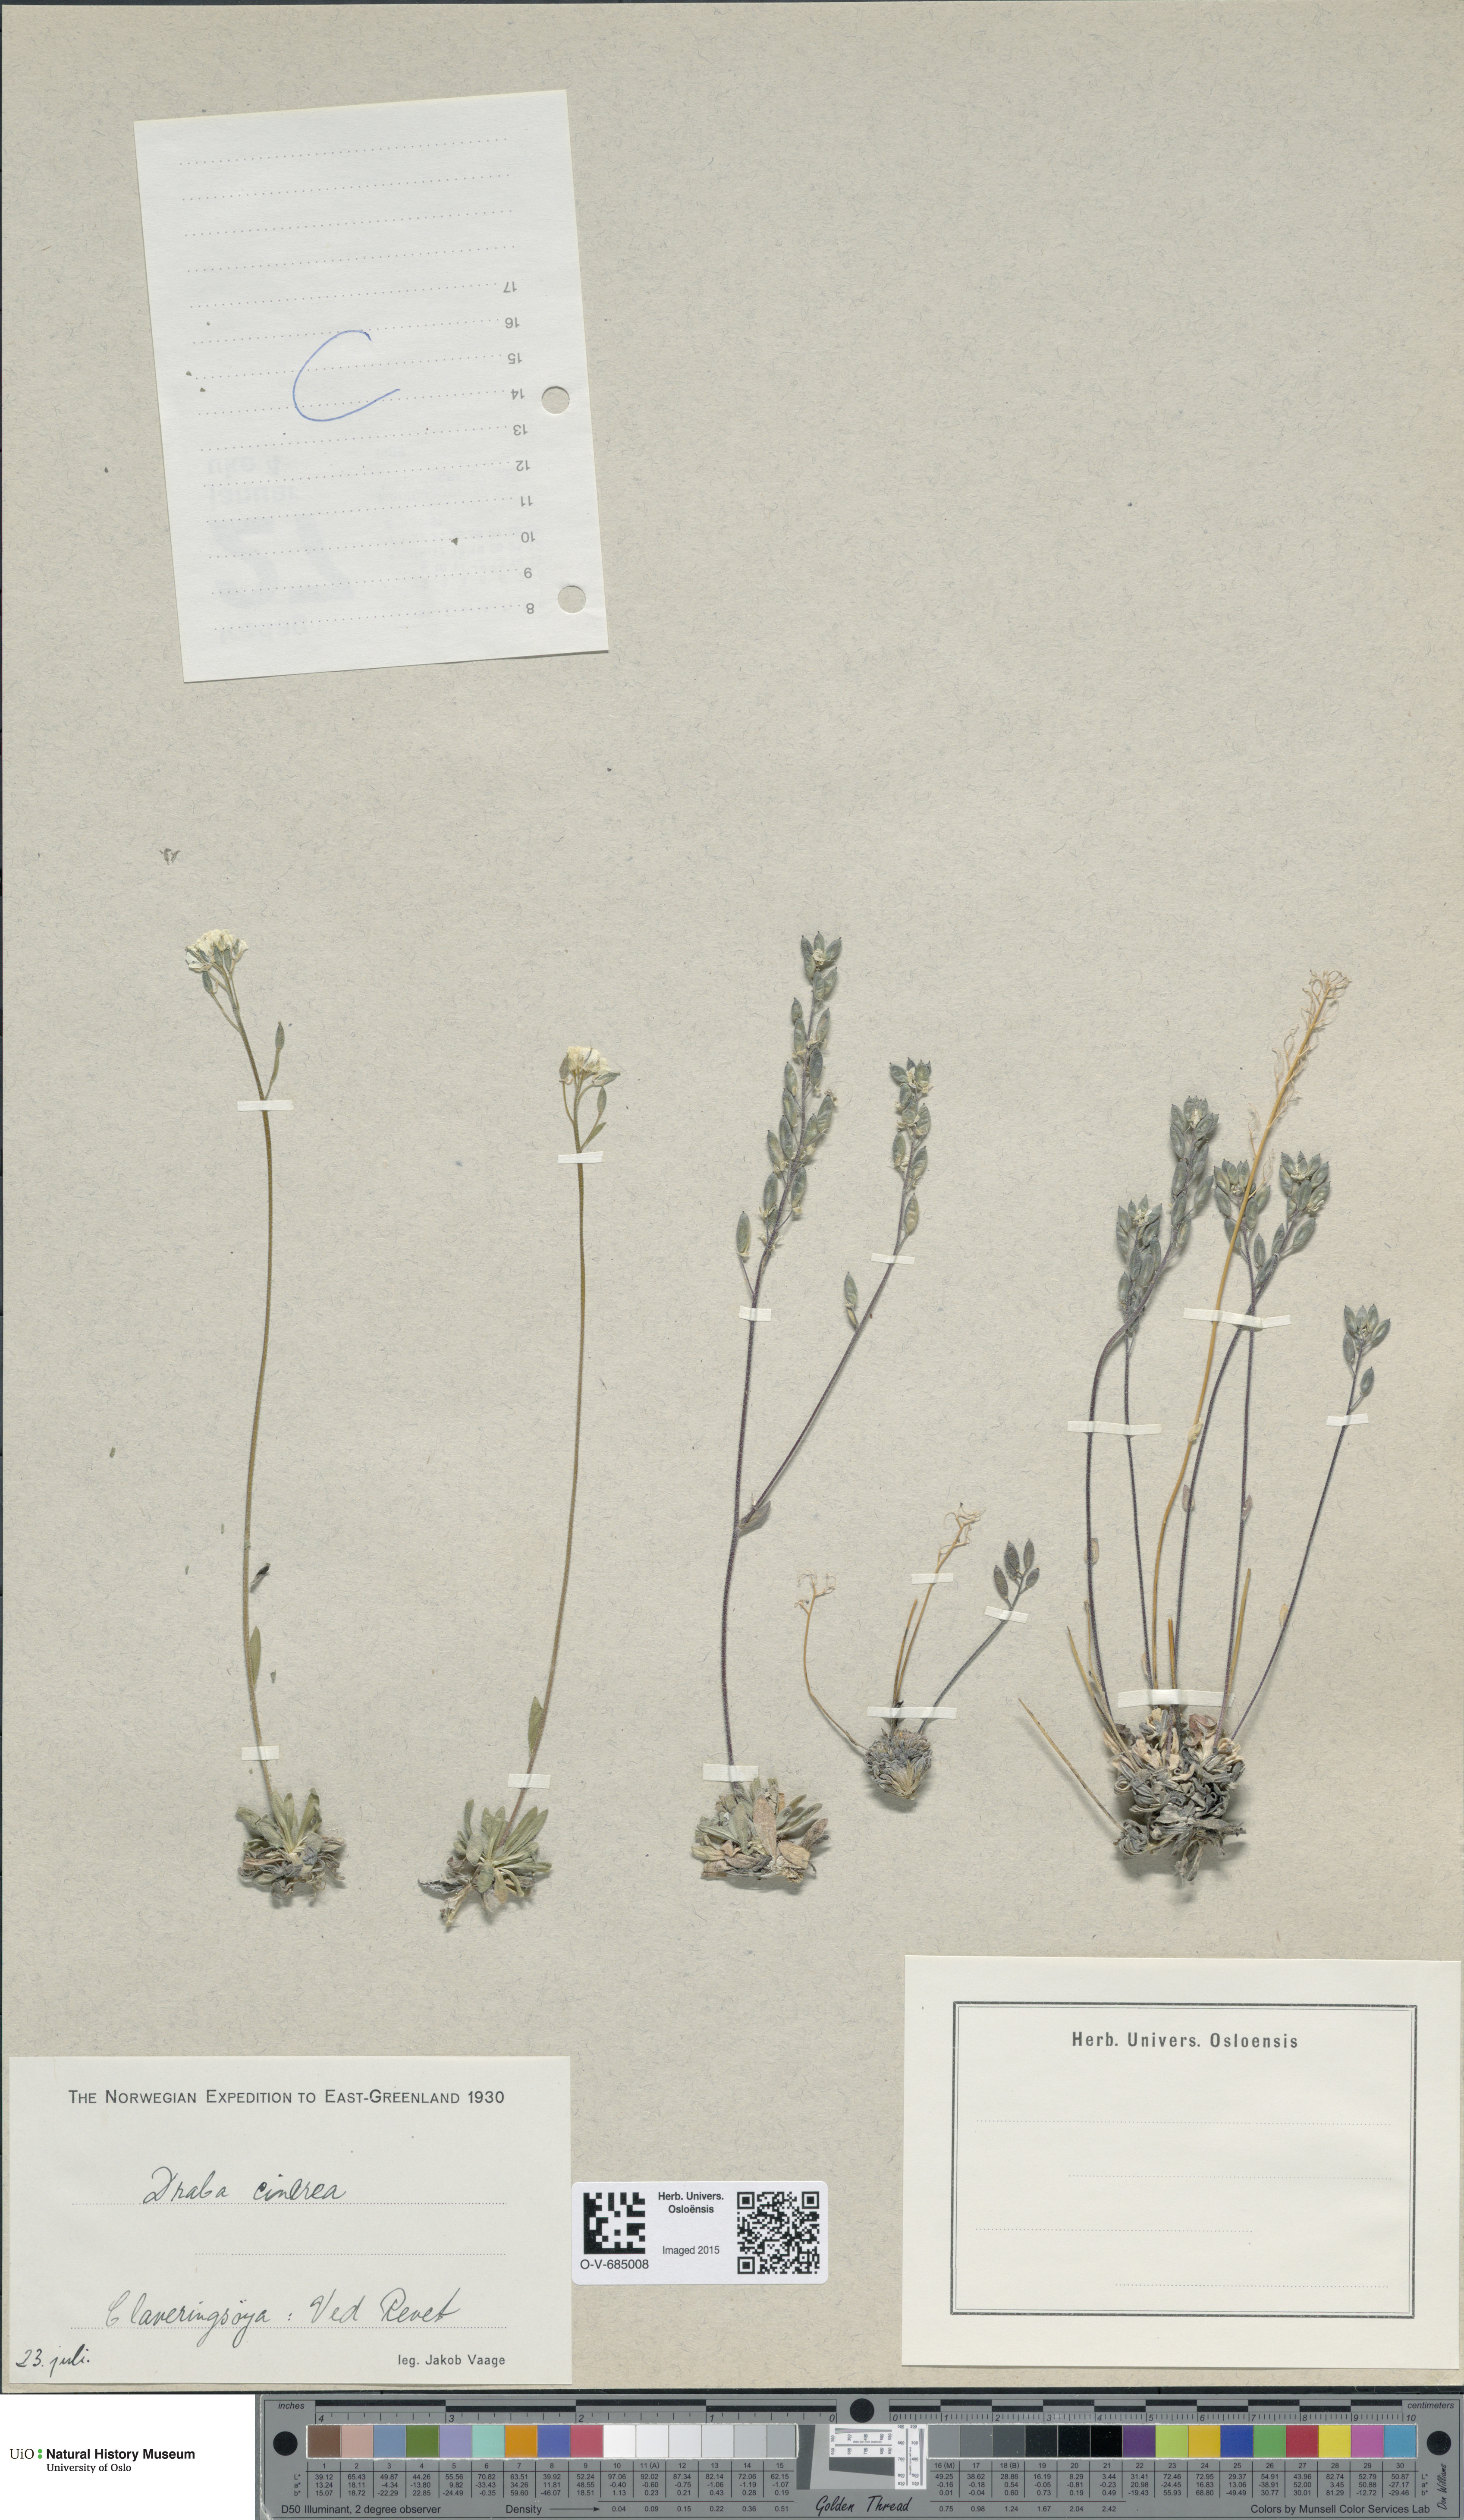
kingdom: Plantae
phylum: Tracheophyta
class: Magnoliopsida
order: Brassicales
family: Brassicaceae
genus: Draba
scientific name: Draba cinerea
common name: Ash-coloured whitlow-grass
